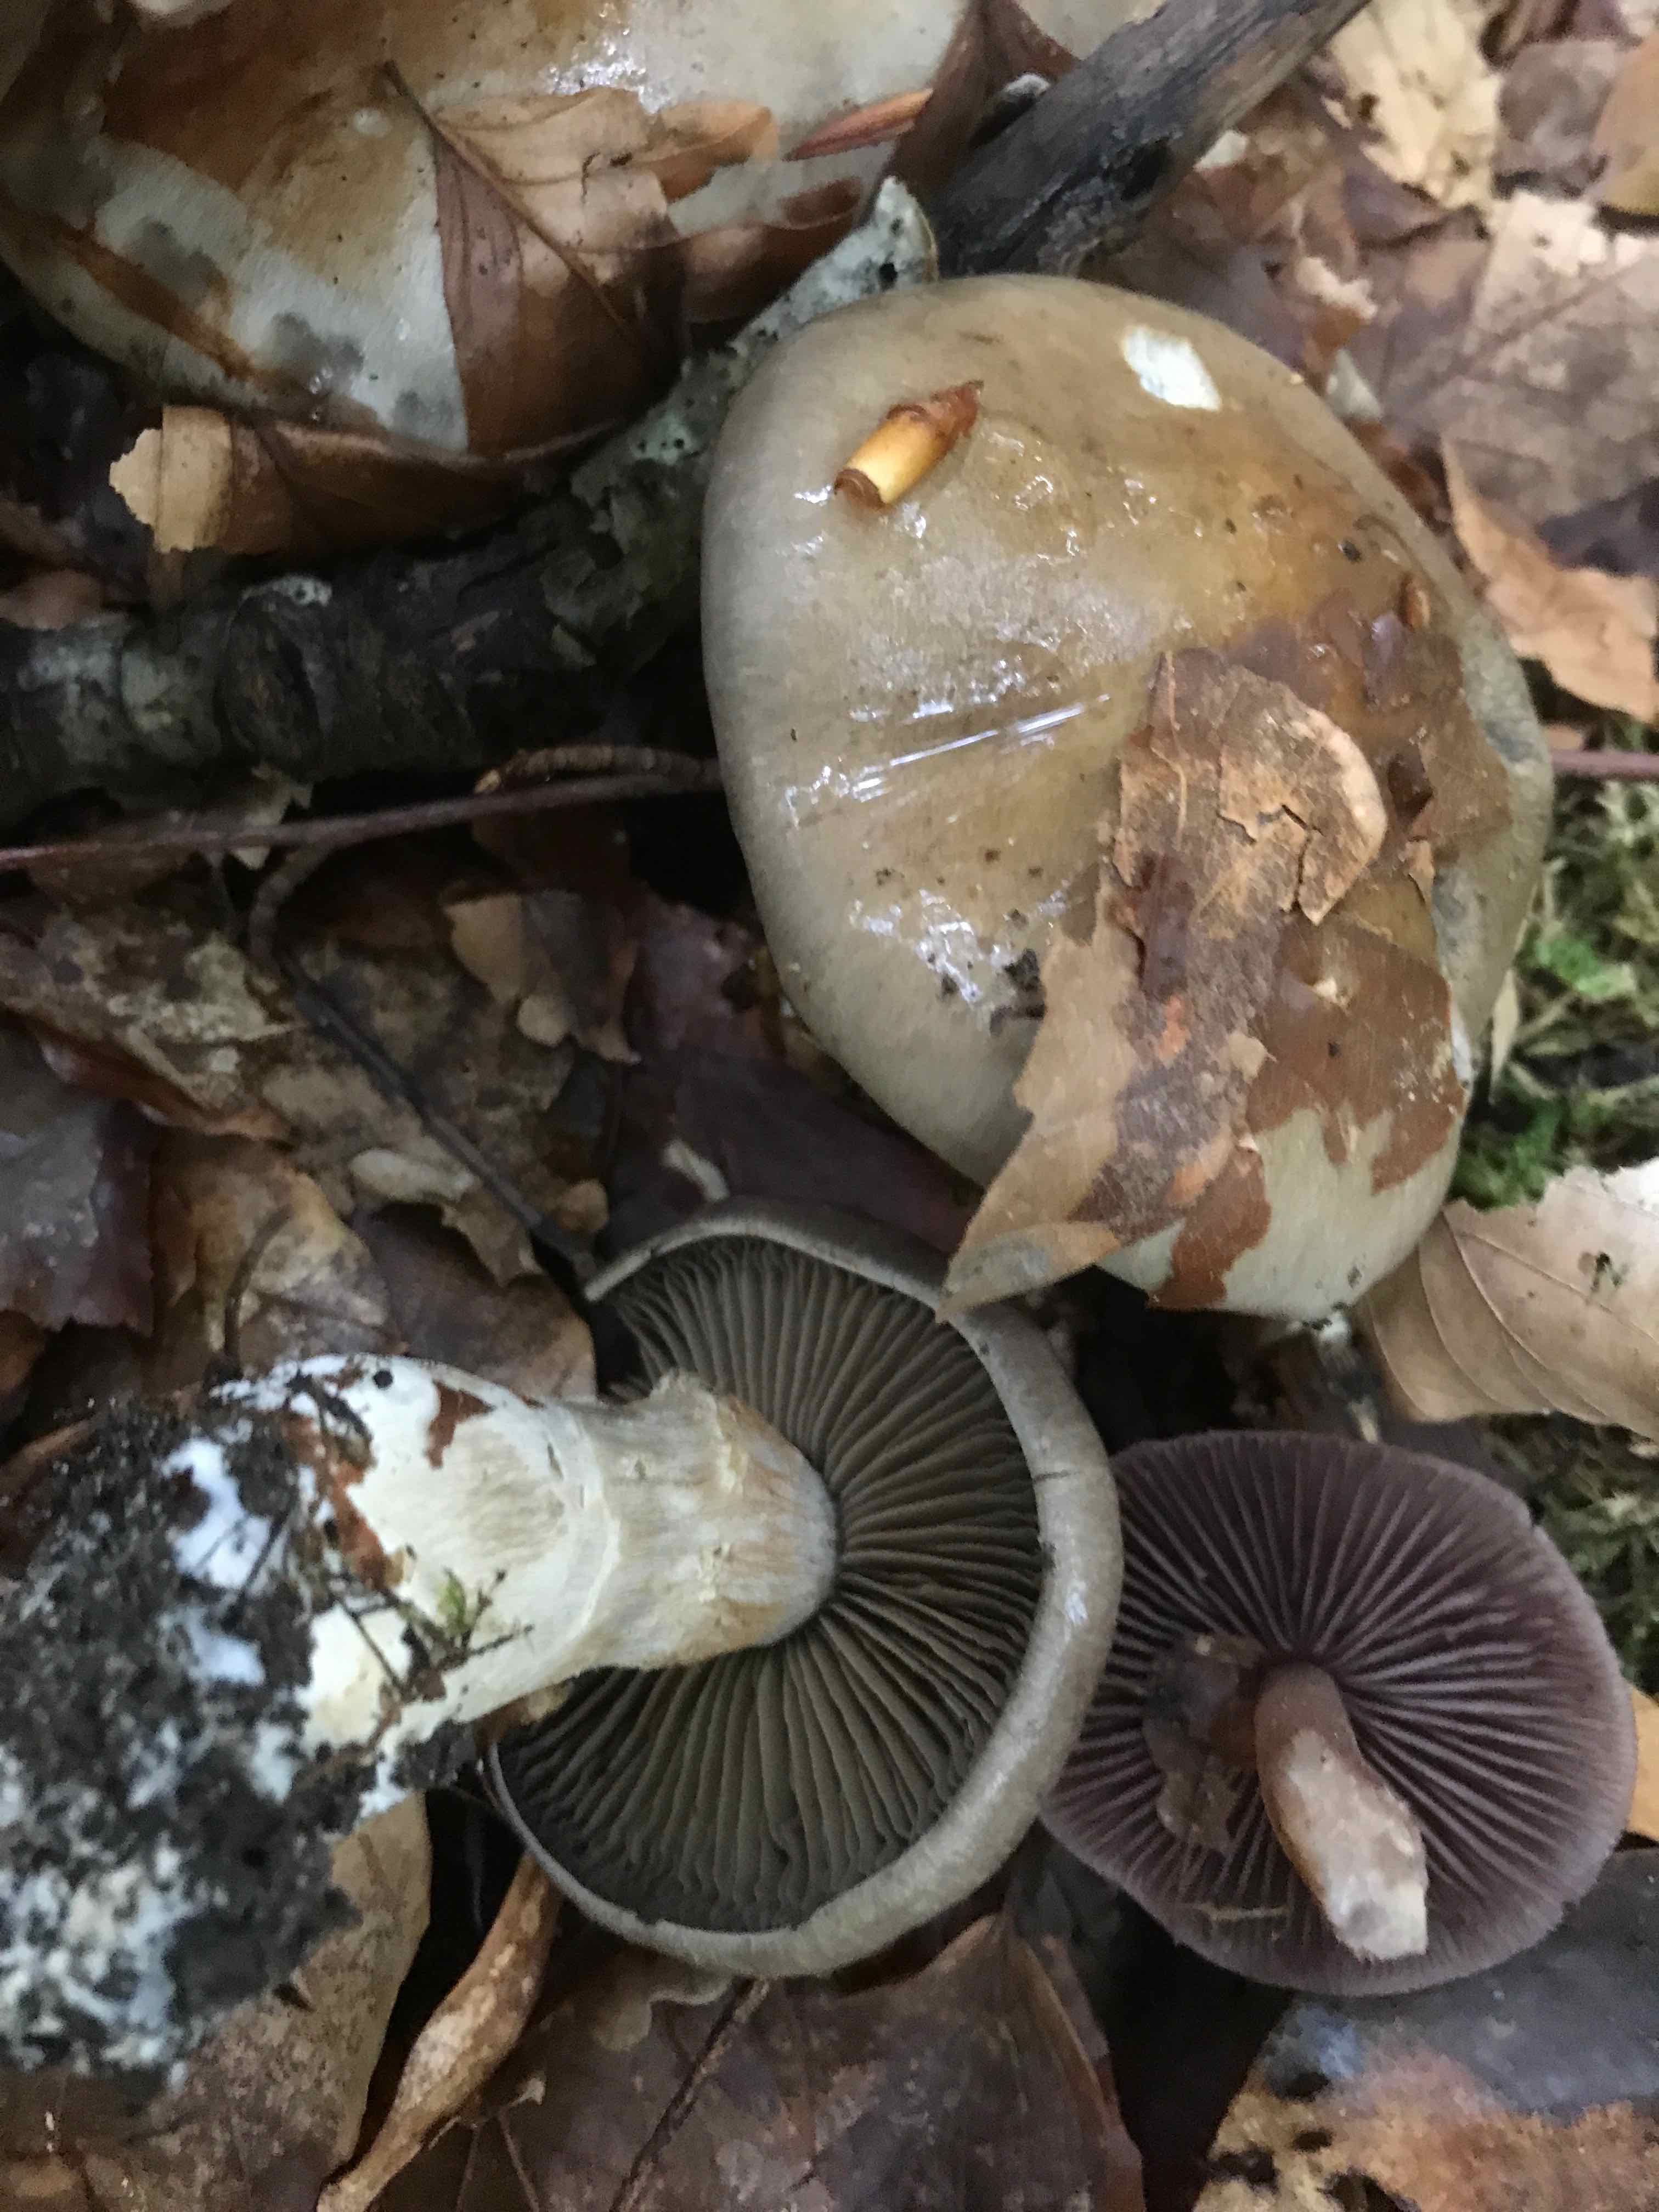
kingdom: Fungi
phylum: Basidiomycota
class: Agaricomycetes
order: Agaricales
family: Cortinariaceae
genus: Cortinarius
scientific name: Cortinarius
